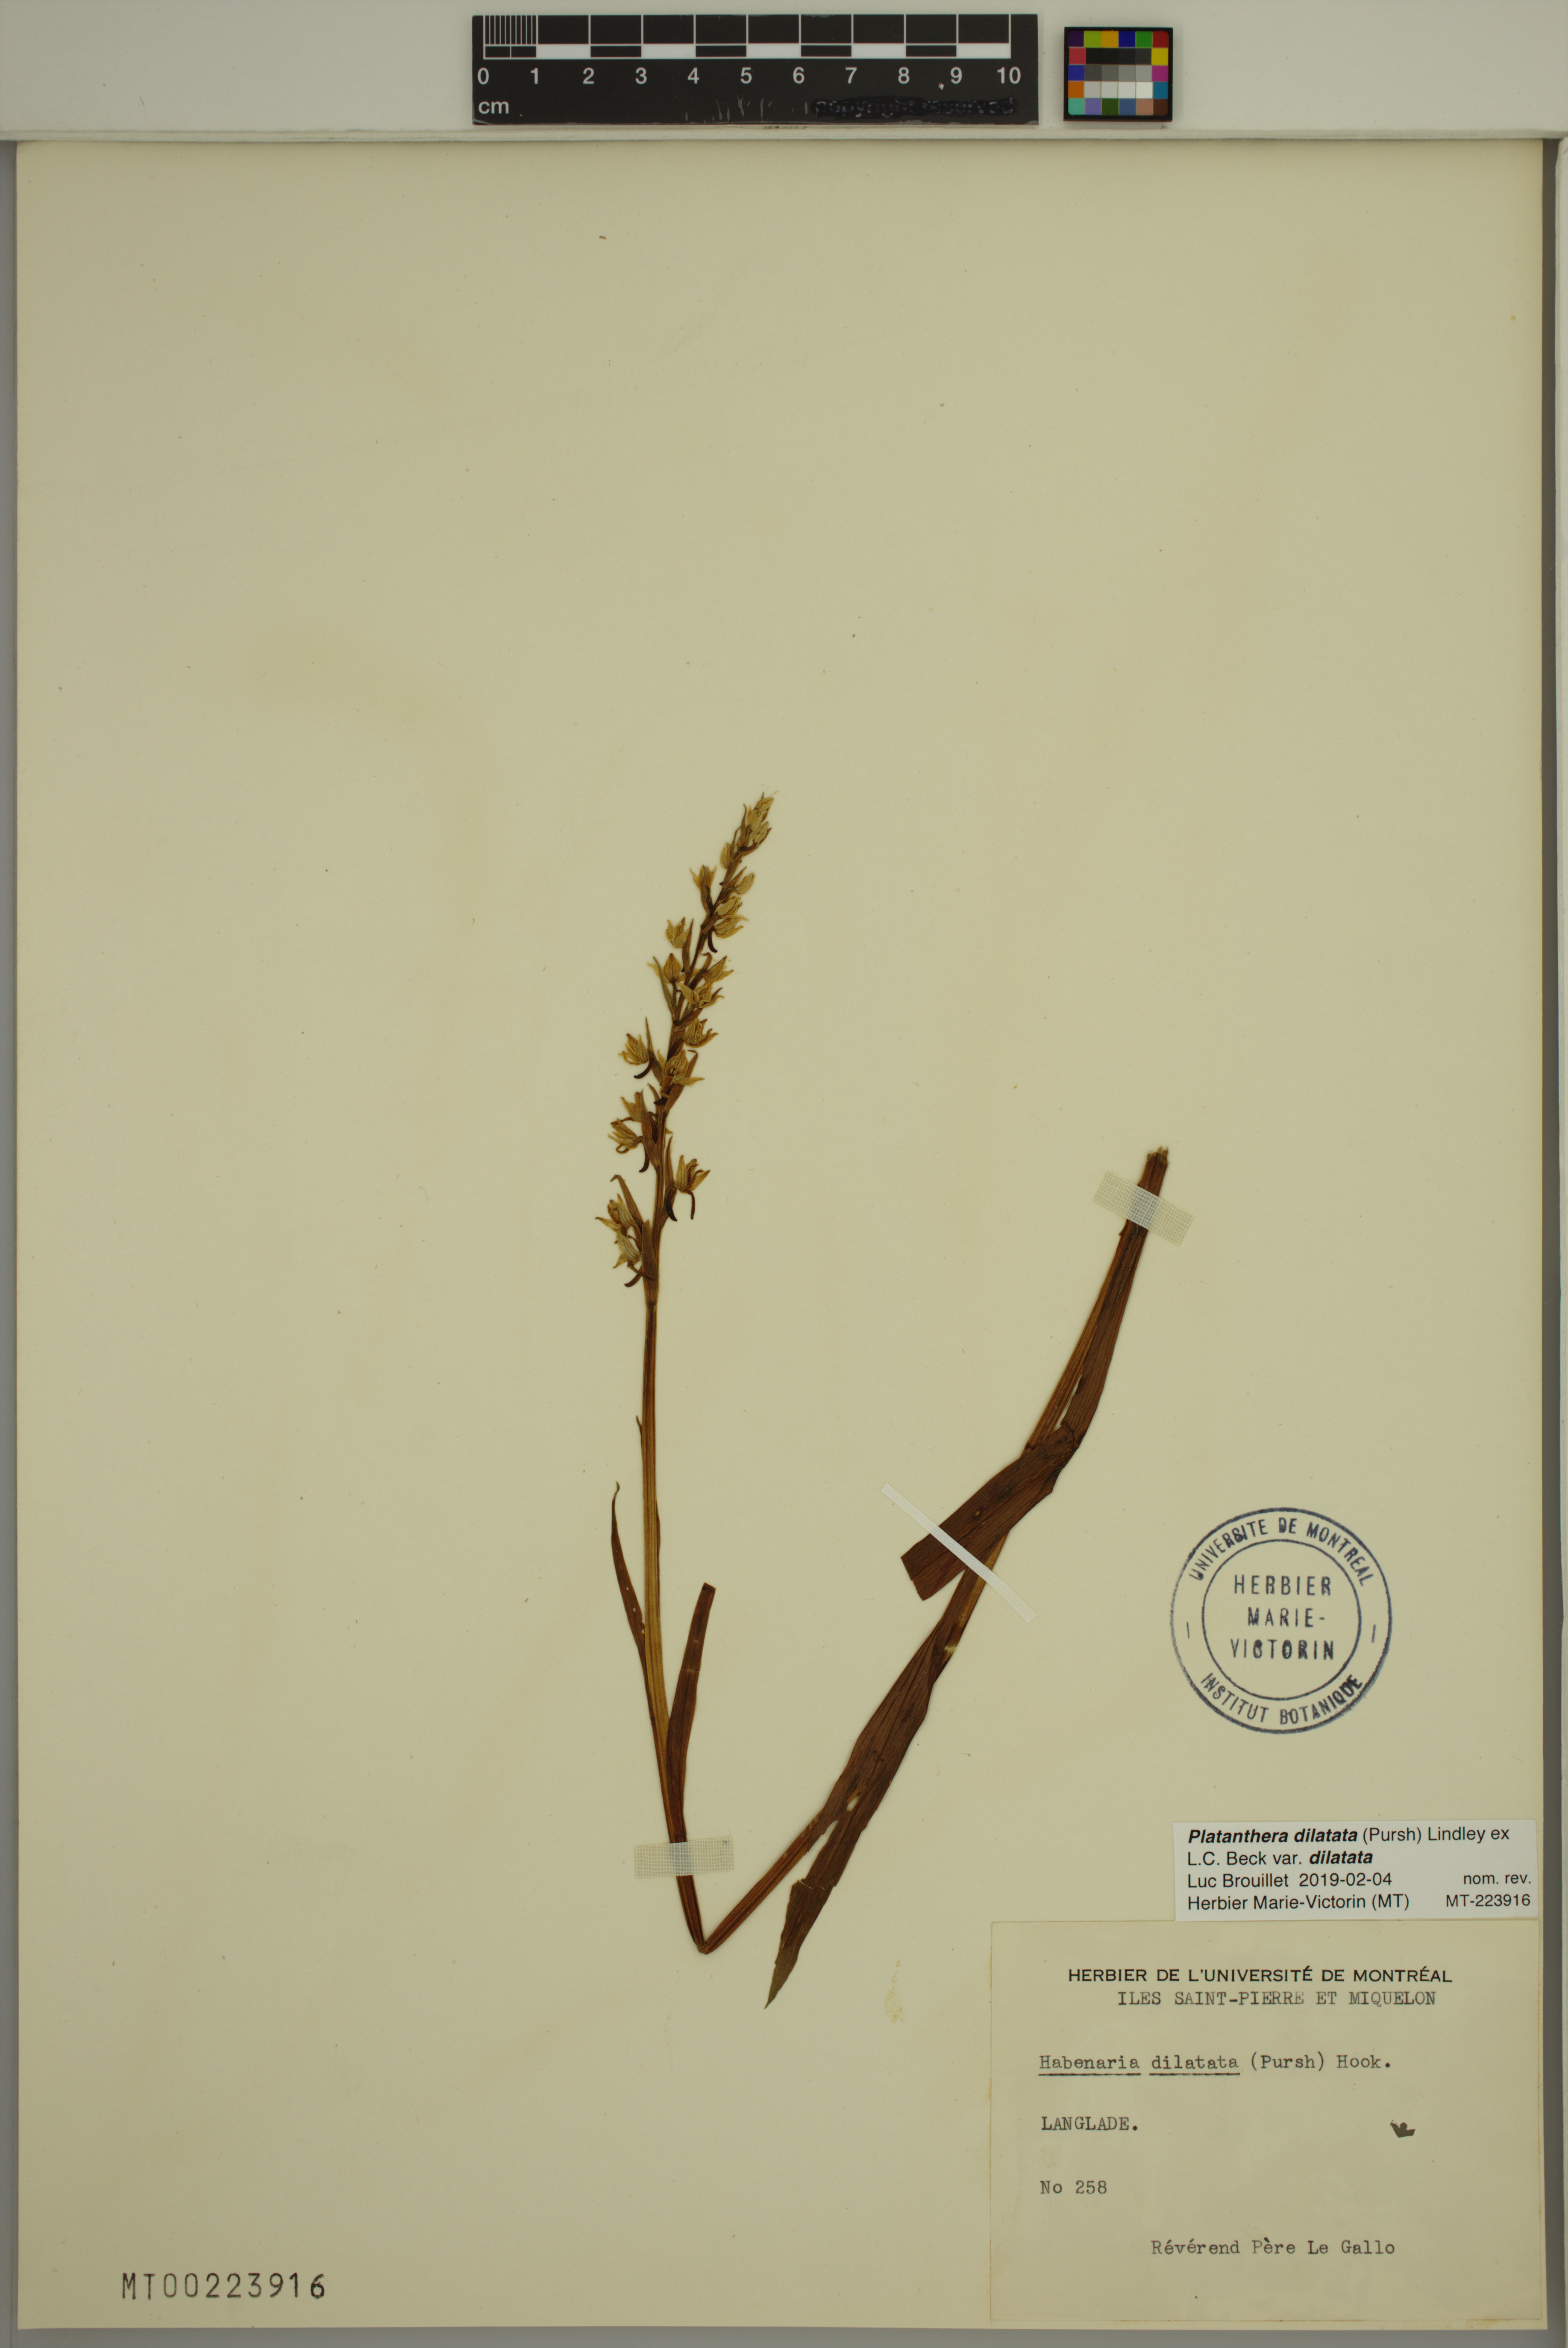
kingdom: Plantae
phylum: Tracheophyta
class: Liliopsida
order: Asparagales
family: Orchidaceae
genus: Platanthera
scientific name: Platanthera dilatata
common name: Bog candles
